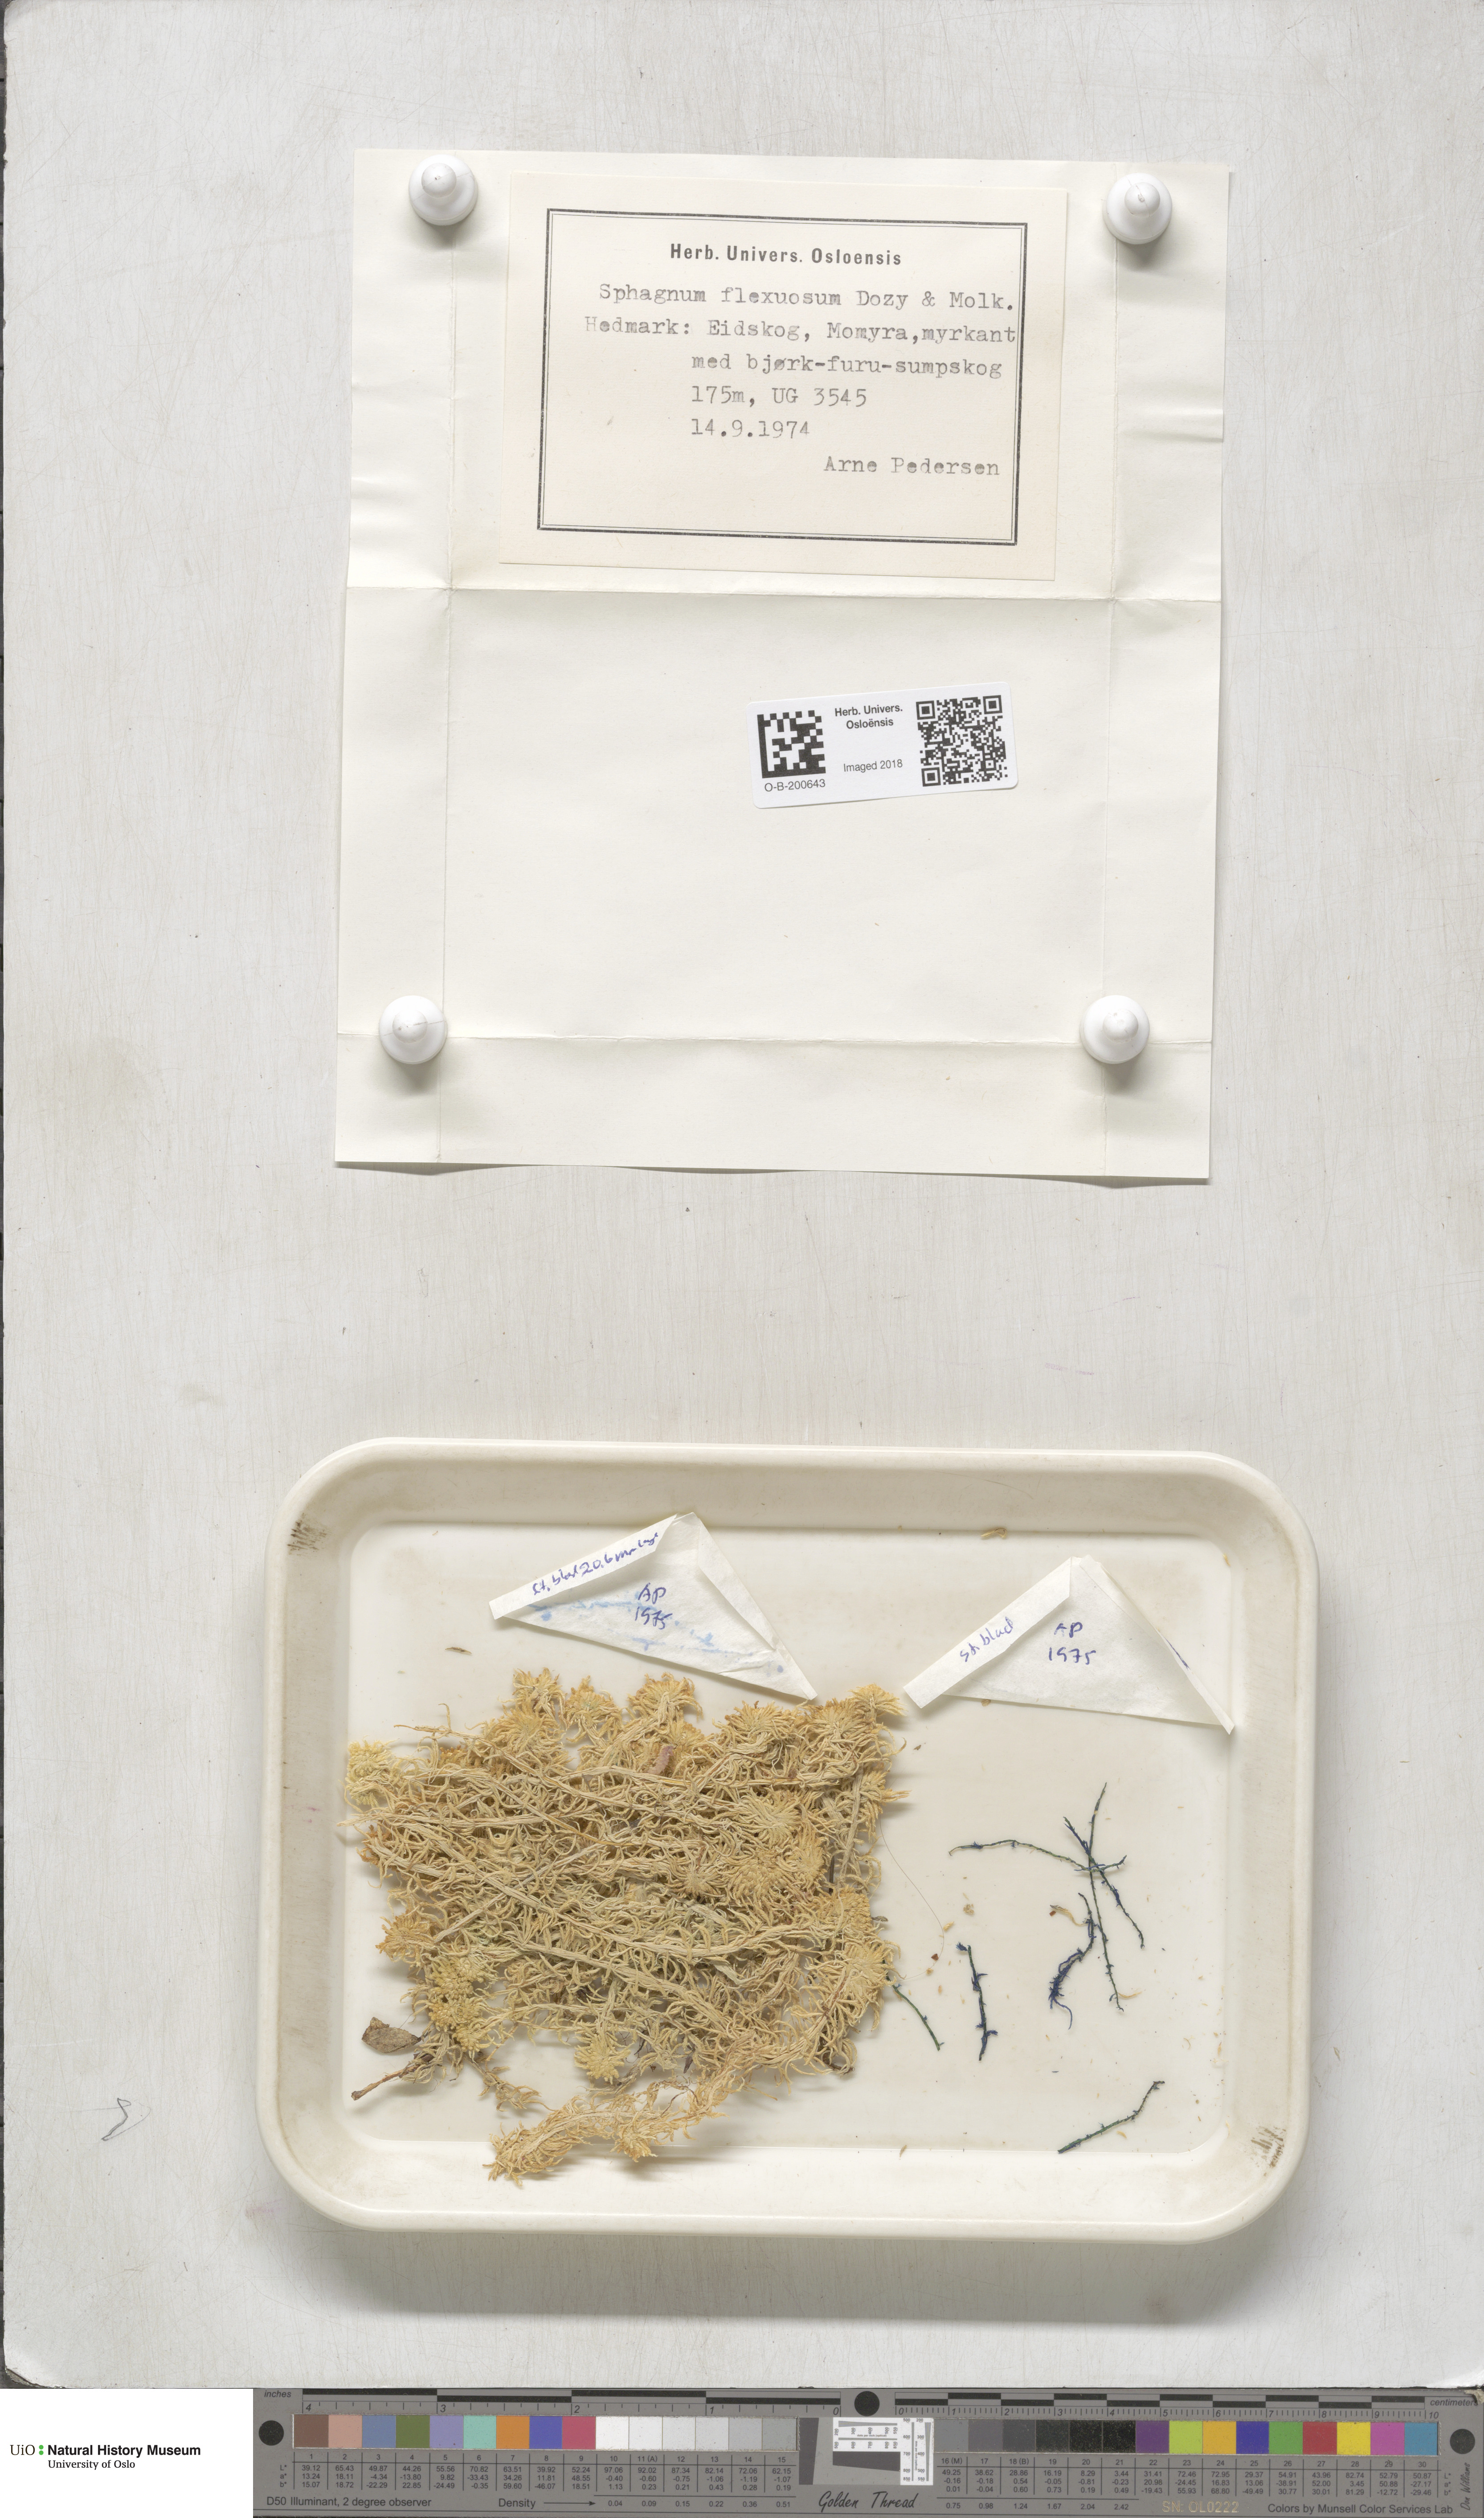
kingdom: Plantae
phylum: Bryophyta
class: Sphagnopsida
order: Sphagnales
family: Sphagnaceae
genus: Sphagnum
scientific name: Sphagnum flexuosum
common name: Flexible peat moss
